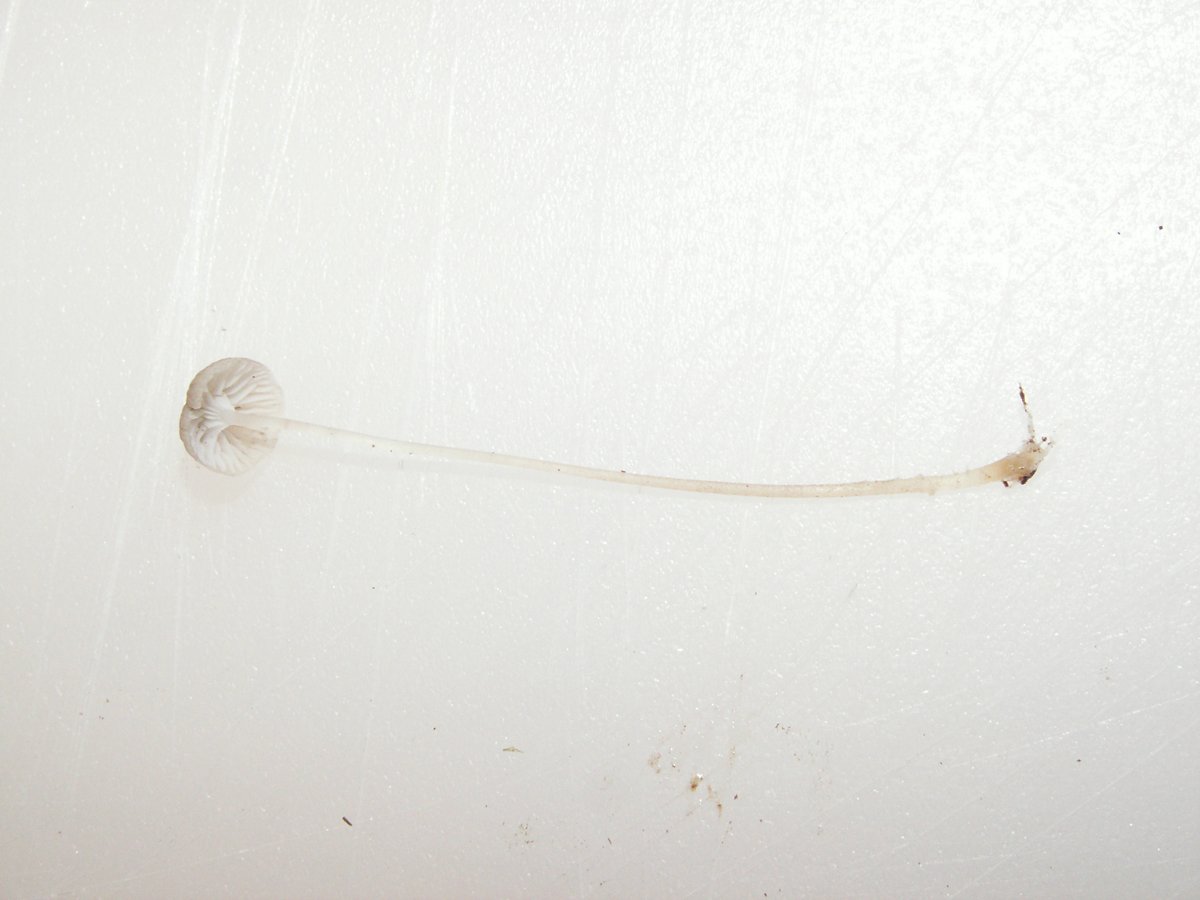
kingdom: Fungi
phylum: Basidiomycota
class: Agaricomycetes
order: Agaricales
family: Porotheleaceae
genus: Phloeomana
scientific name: Phloeomana speirea
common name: kvist-huesvamp
